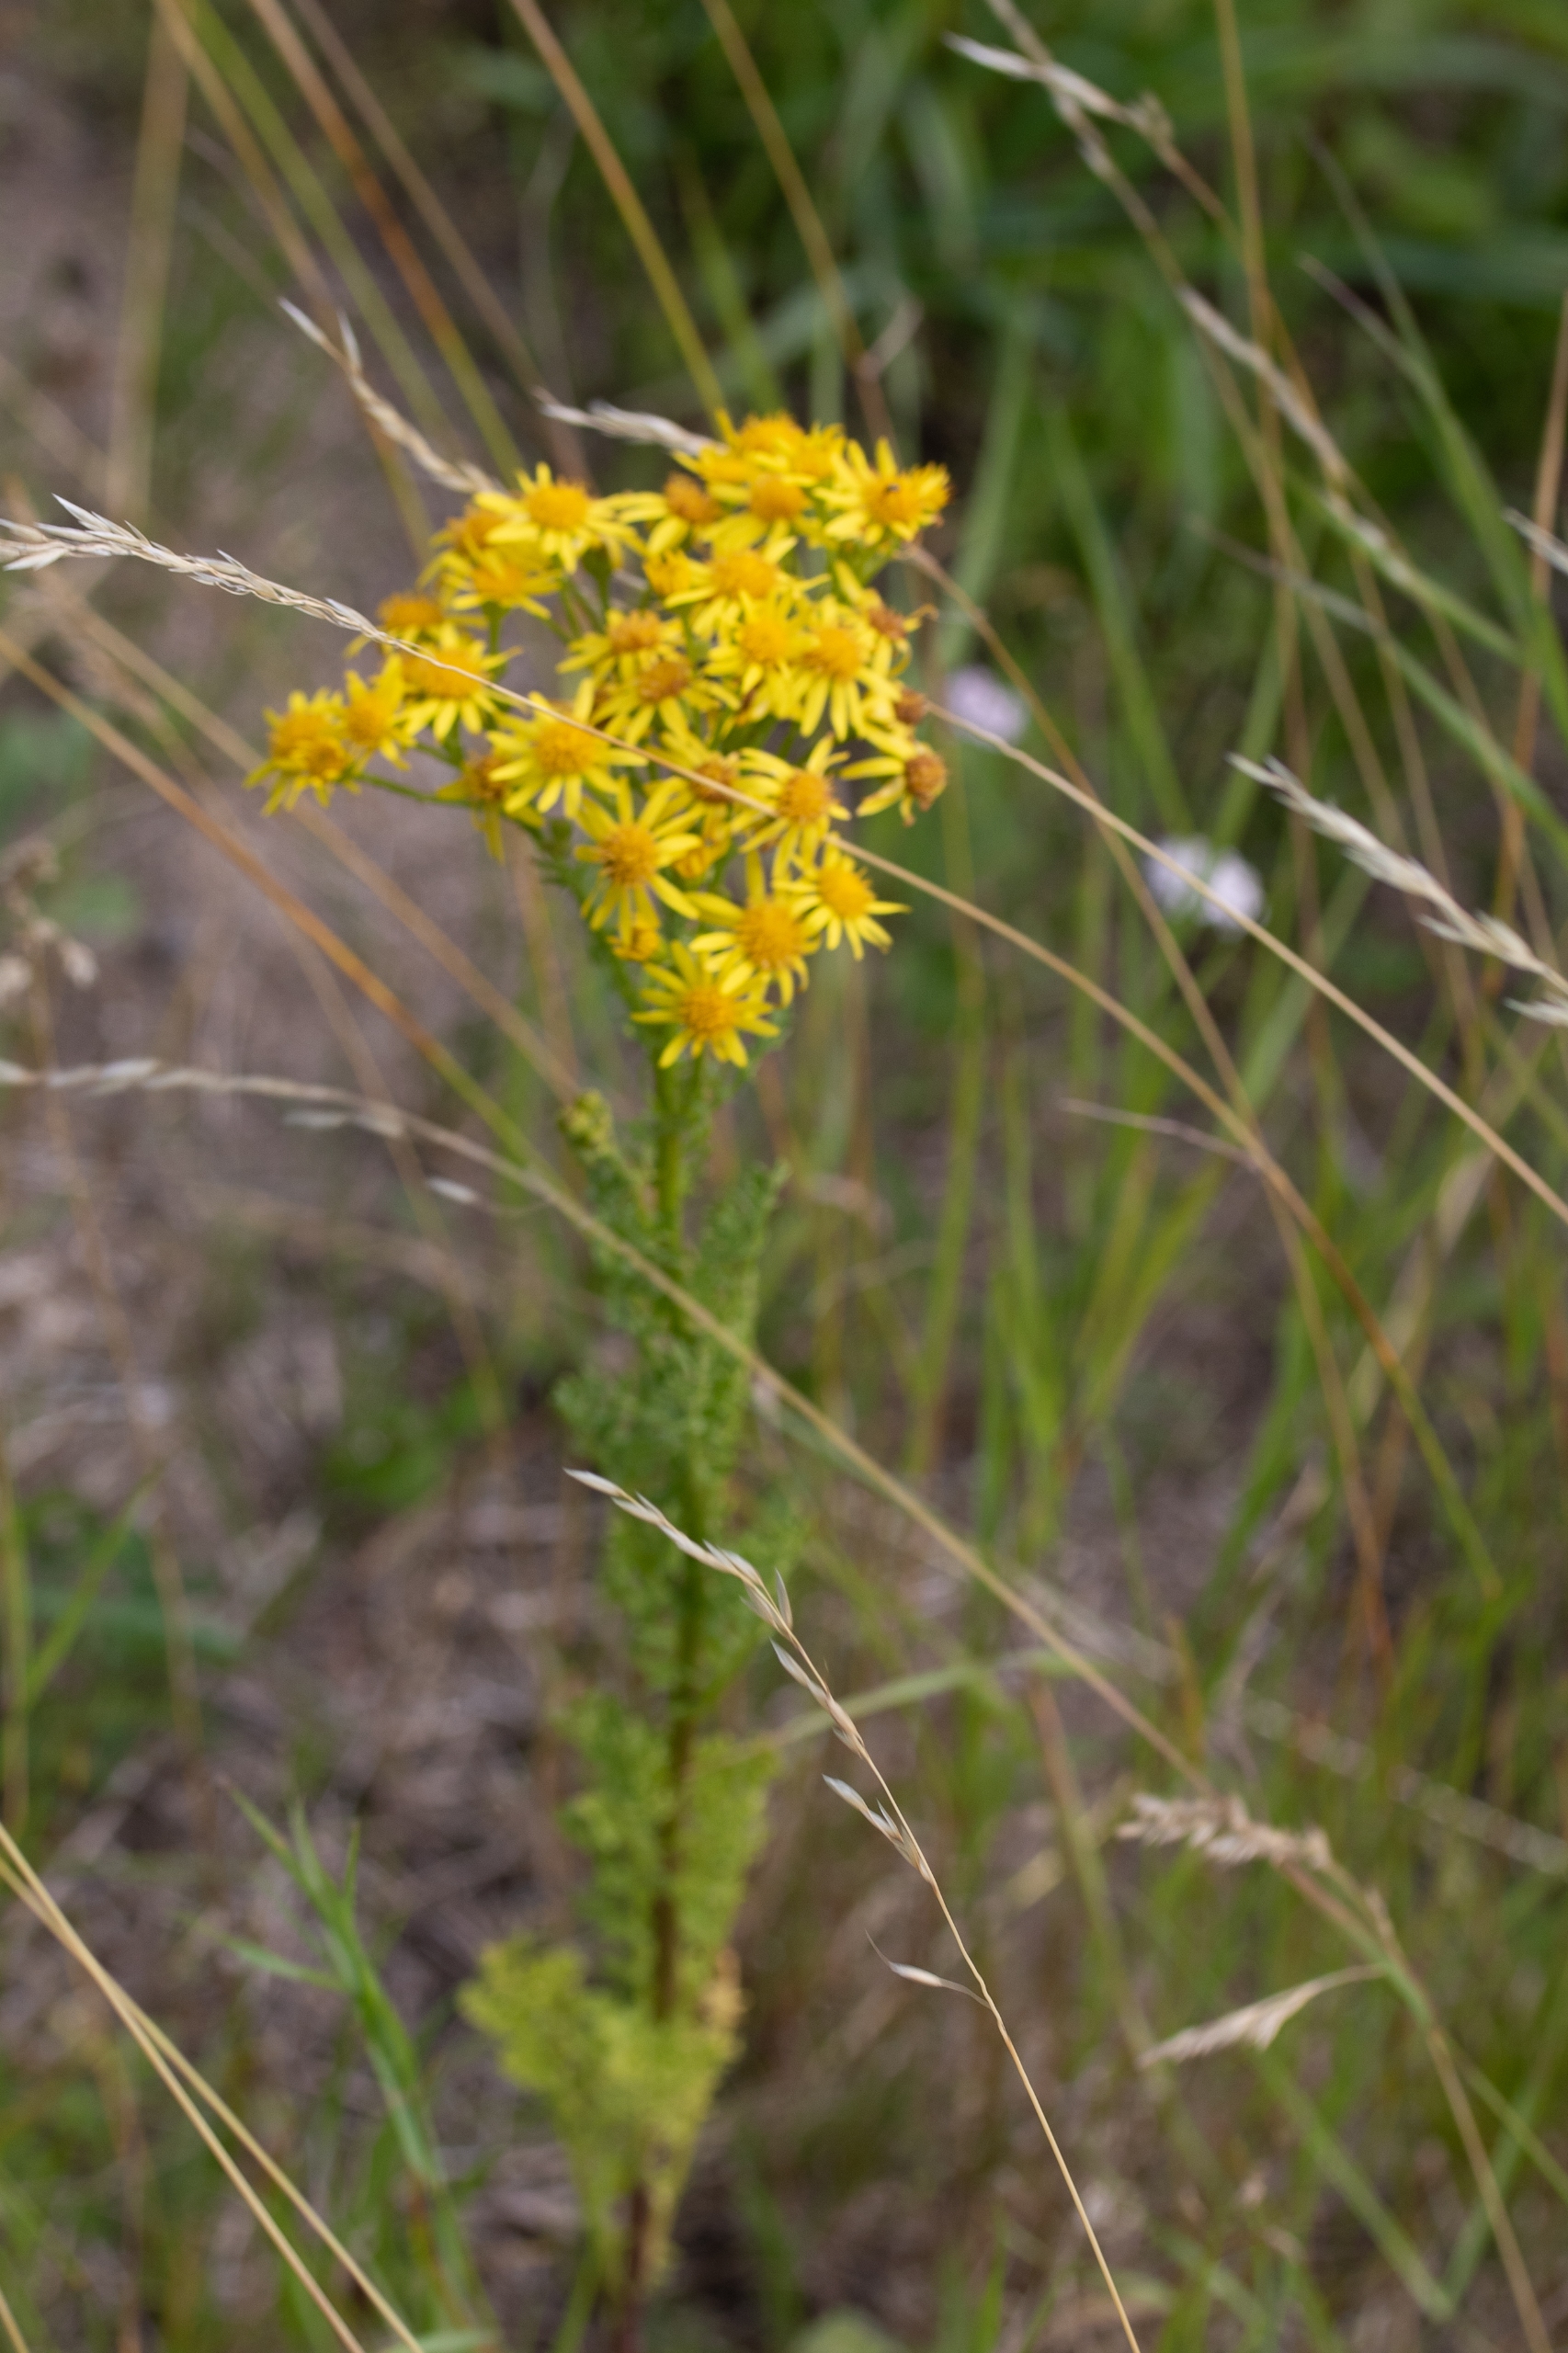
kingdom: Plantae
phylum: Tracheophyta
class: Magnoliopsida
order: Asterales
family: Asteraceae
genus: Jacobaea
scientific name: Jacobaea vulgaris
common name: Eng-brandbæger
